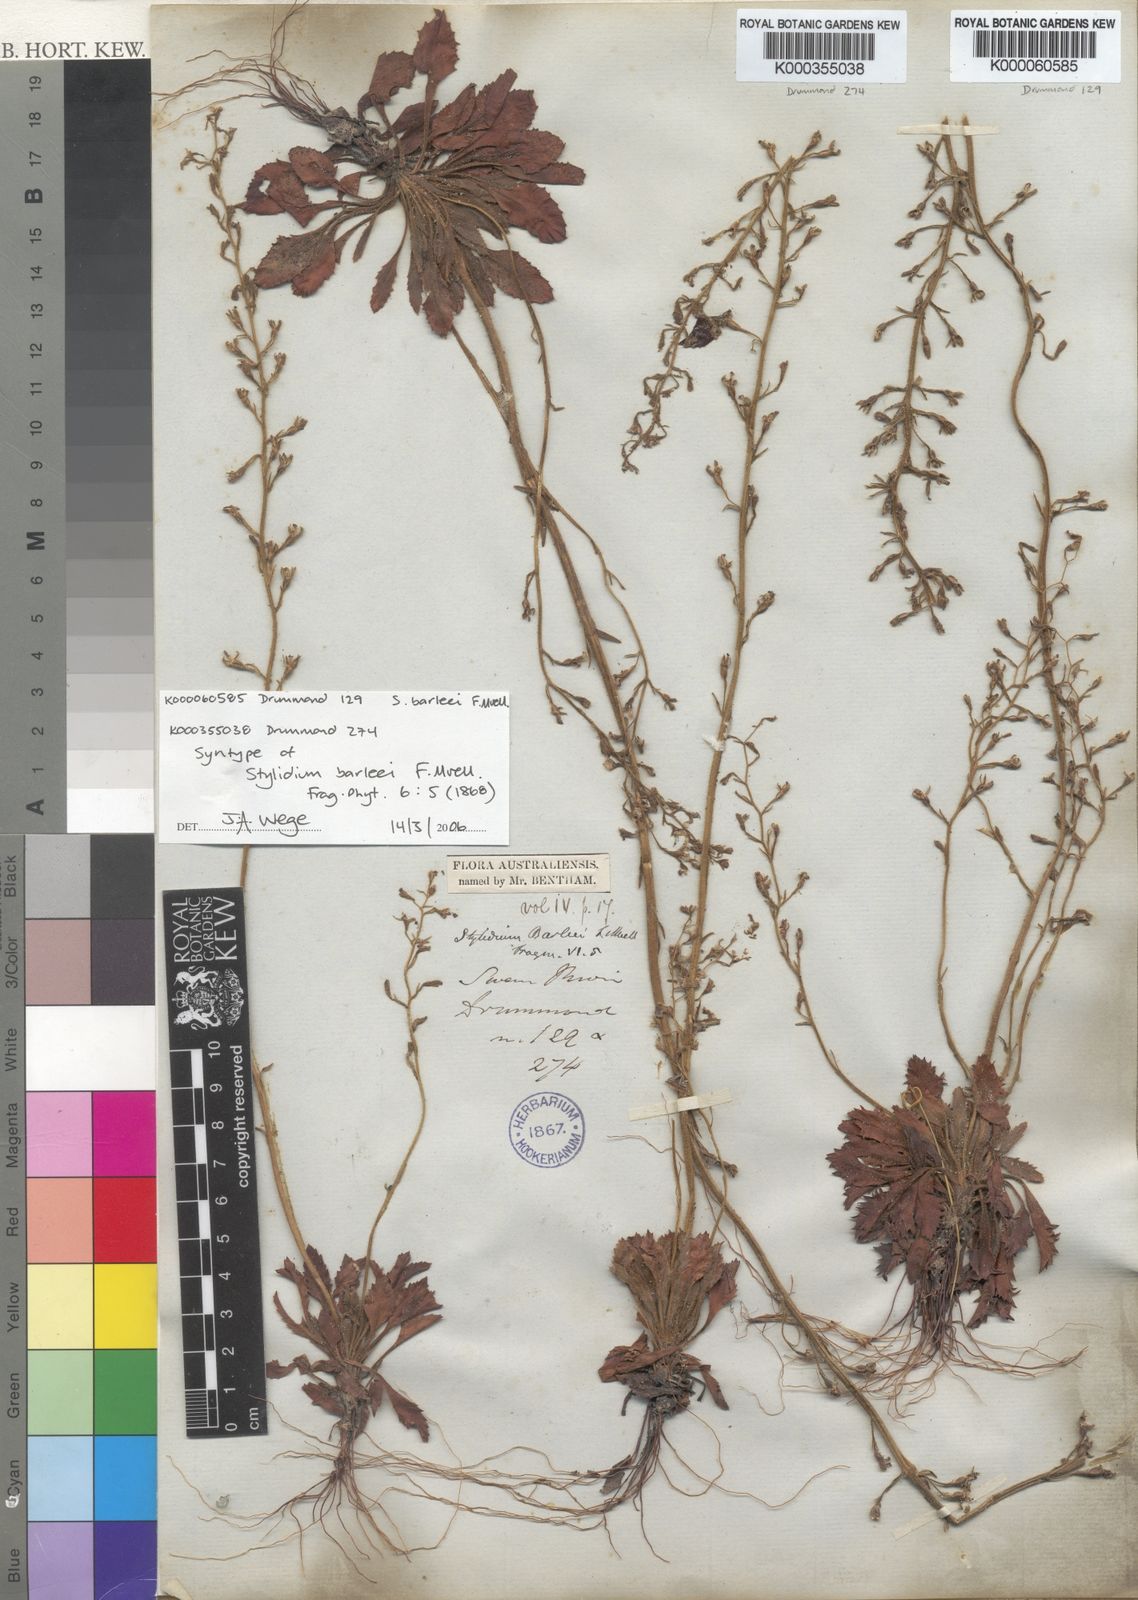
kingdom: Plantae
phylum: Tracheophyta
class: Magnoliopsida
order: Asterales
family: Stylidiaceae
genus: Stylidium
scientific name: Stylidium barleei
